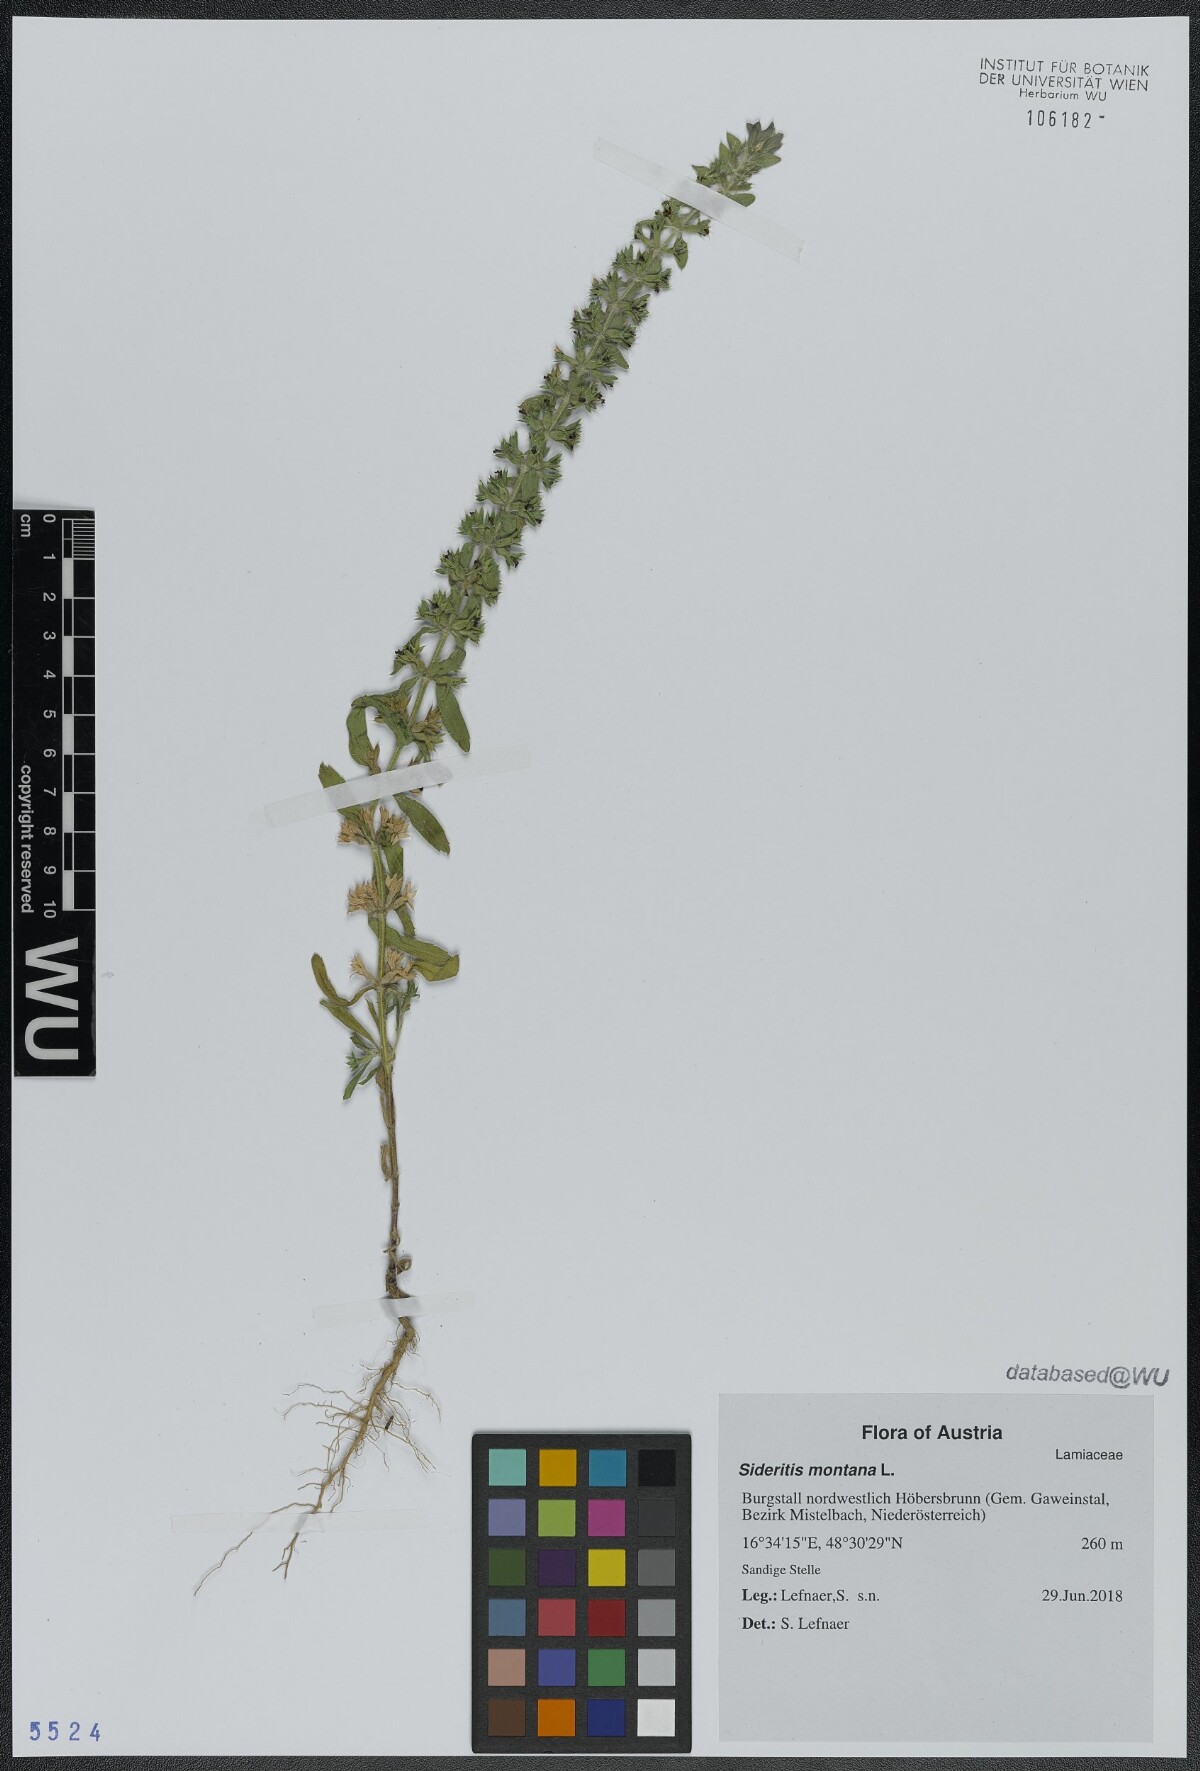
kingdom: Plantae
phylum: Tracheophyta
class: Magnoliopsida
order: Lamiales
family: Lamiaceae
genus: Sideritis
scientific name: Sideritis montana
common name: Mountain ironwort
